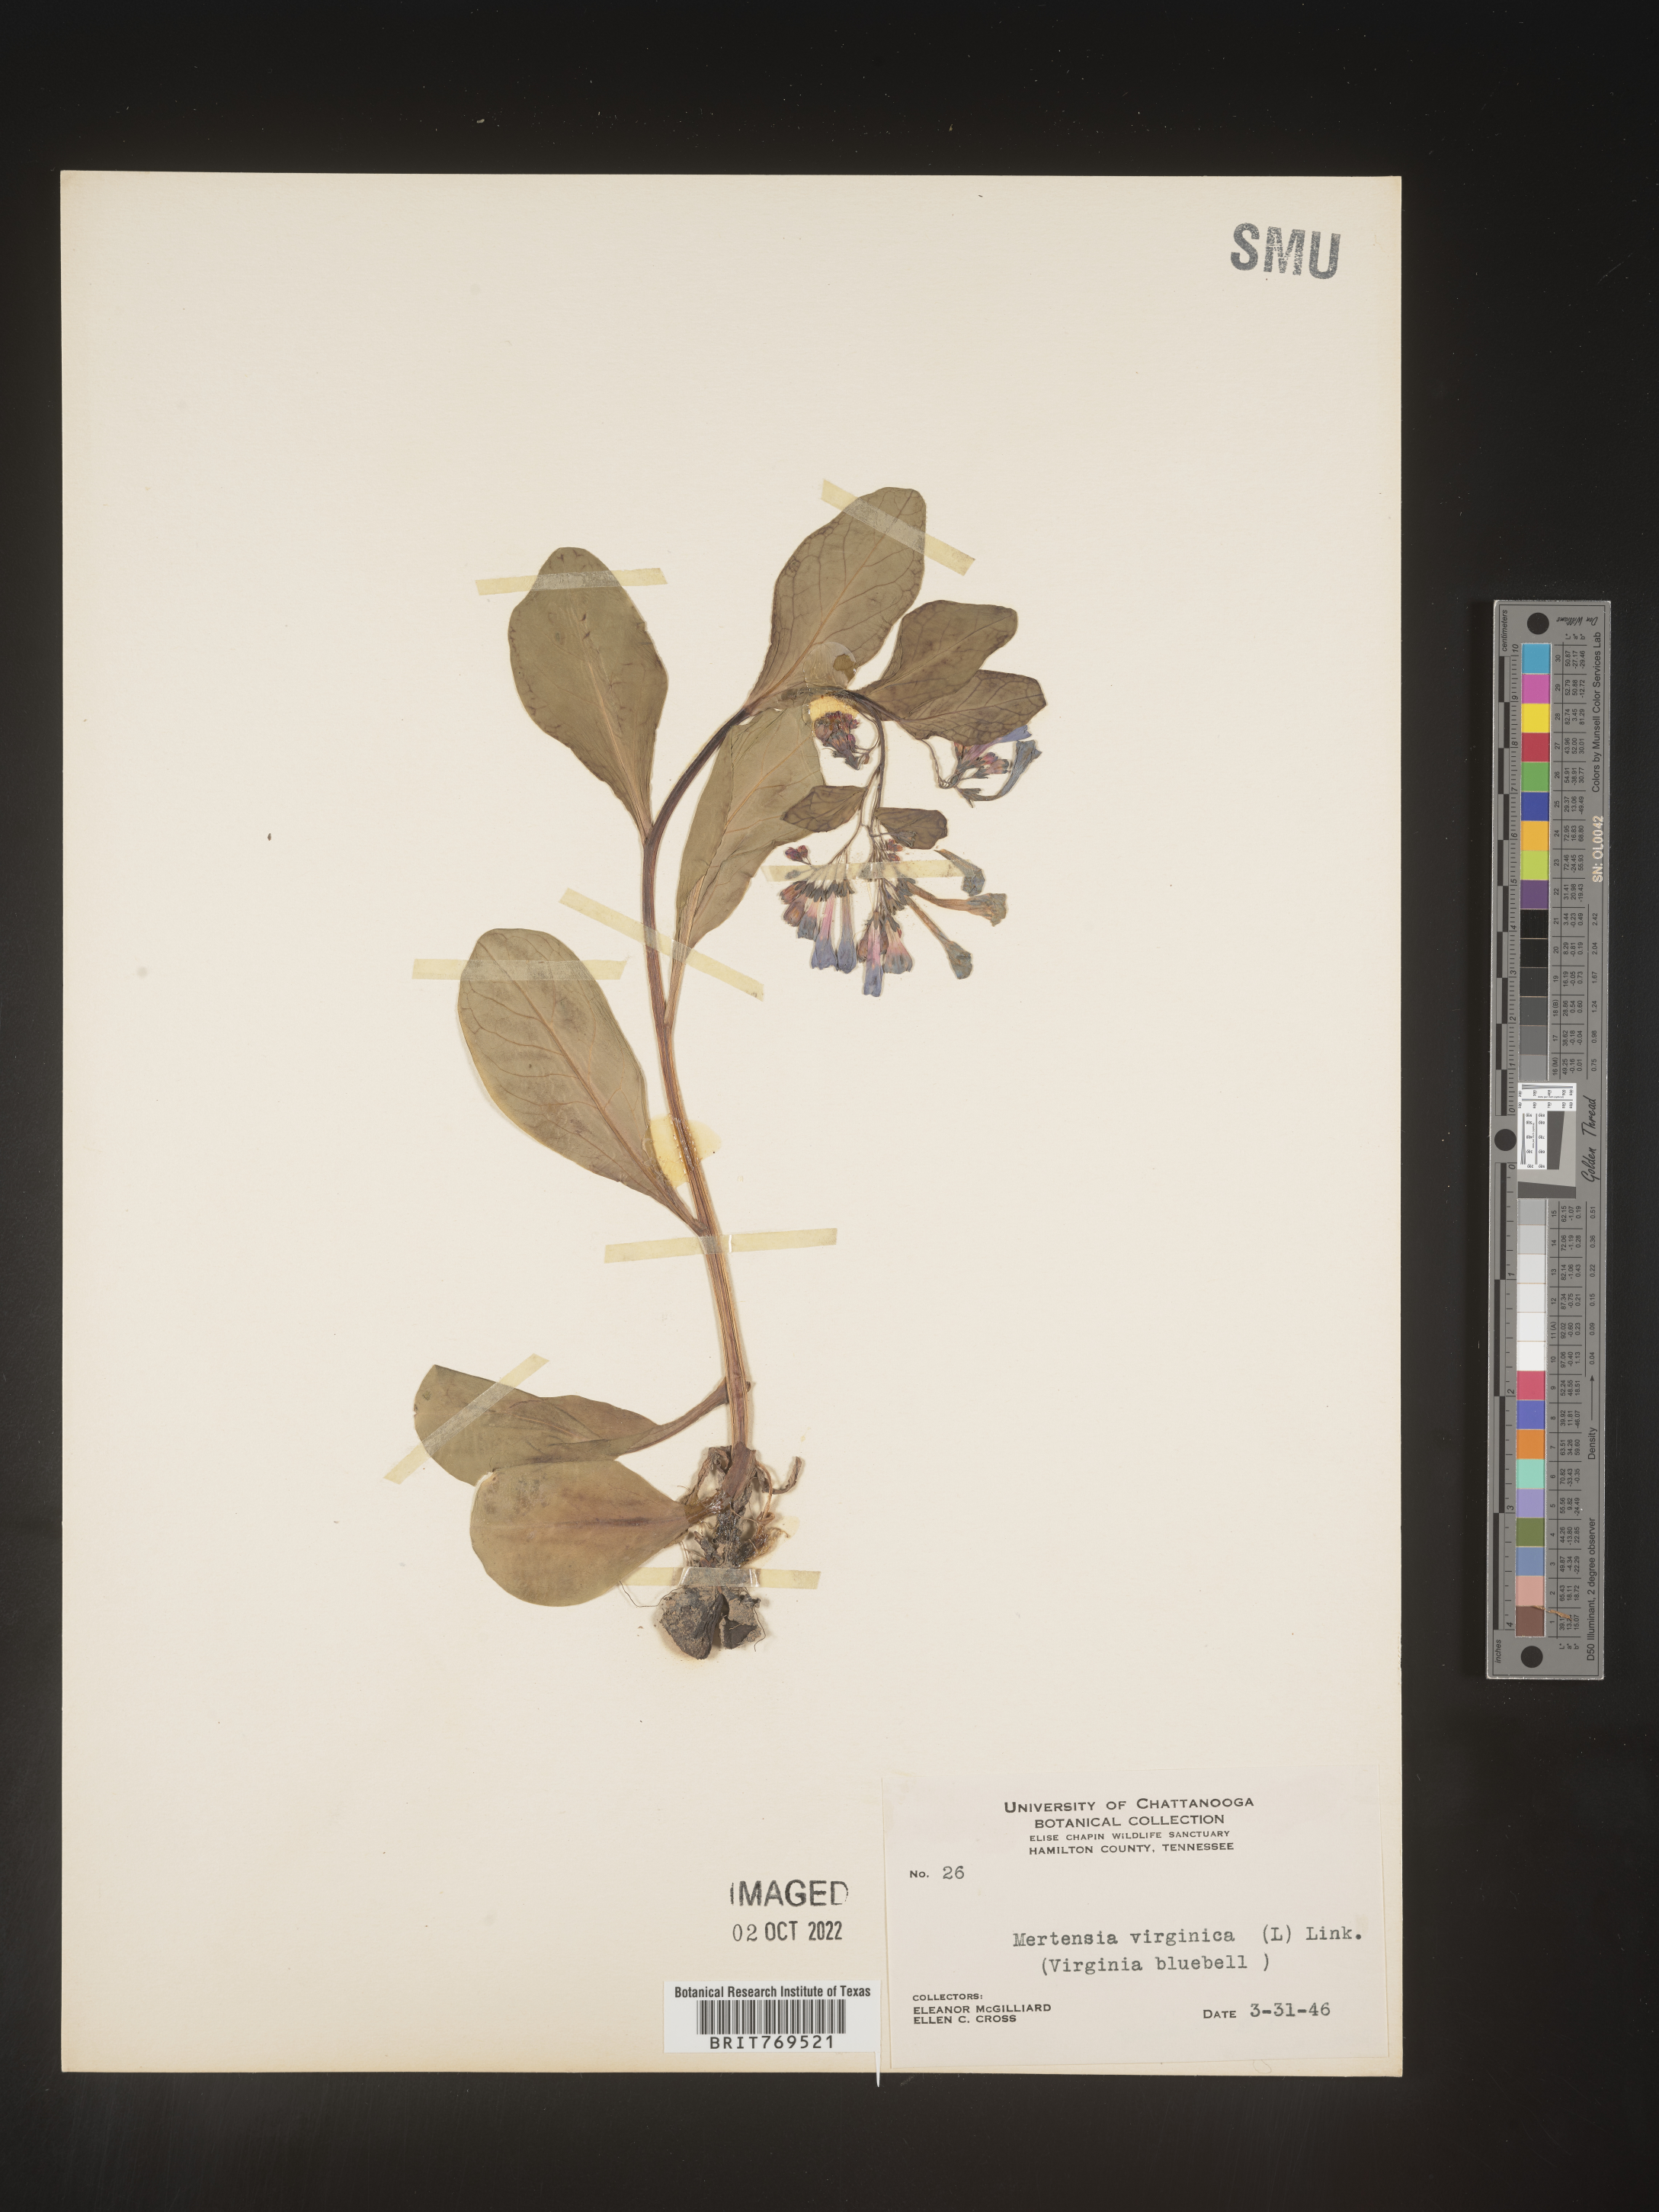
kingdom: Plantae
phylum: Tracheophyta
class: Magnoliopsida
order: Boraginales
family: Boraginaceae
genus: Mertensia
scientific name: Mertensia virginica
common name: Virginia bluebells
